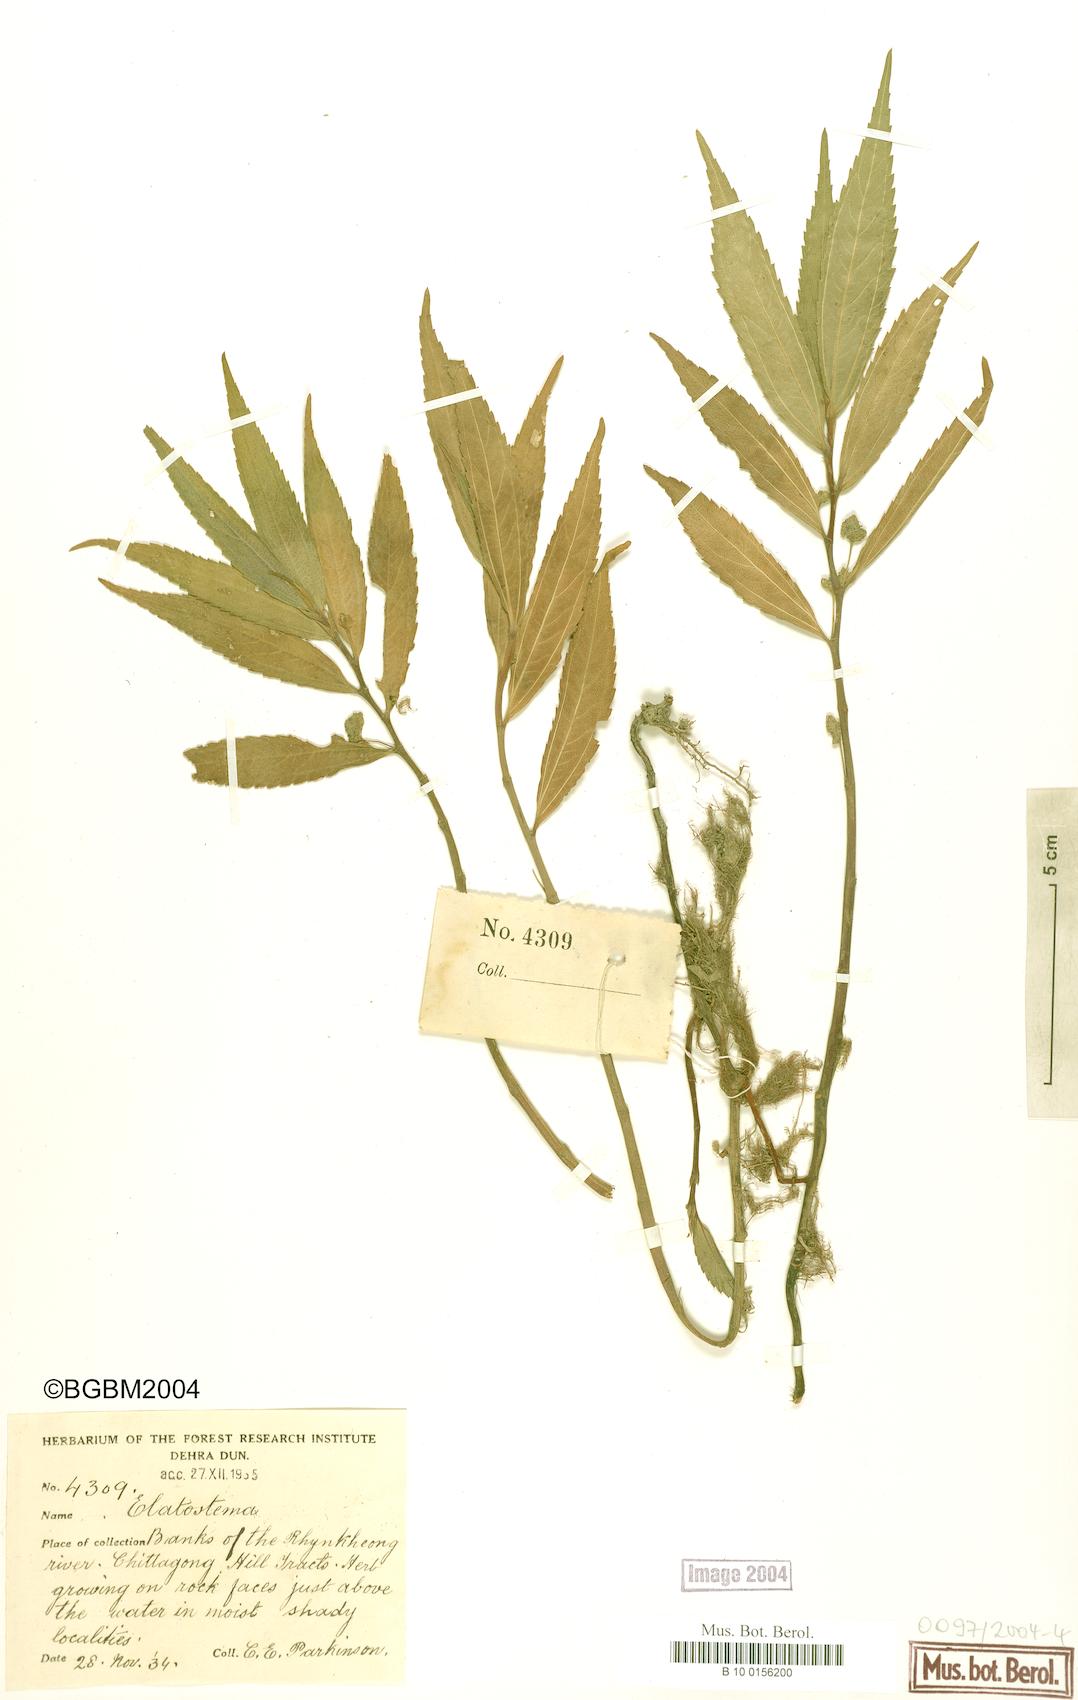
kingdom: Plantae
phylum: Tracheophyta
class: Magnoliopsida
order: Rosales
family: Urticaceae
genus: Elatostema
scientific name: Elatostema
